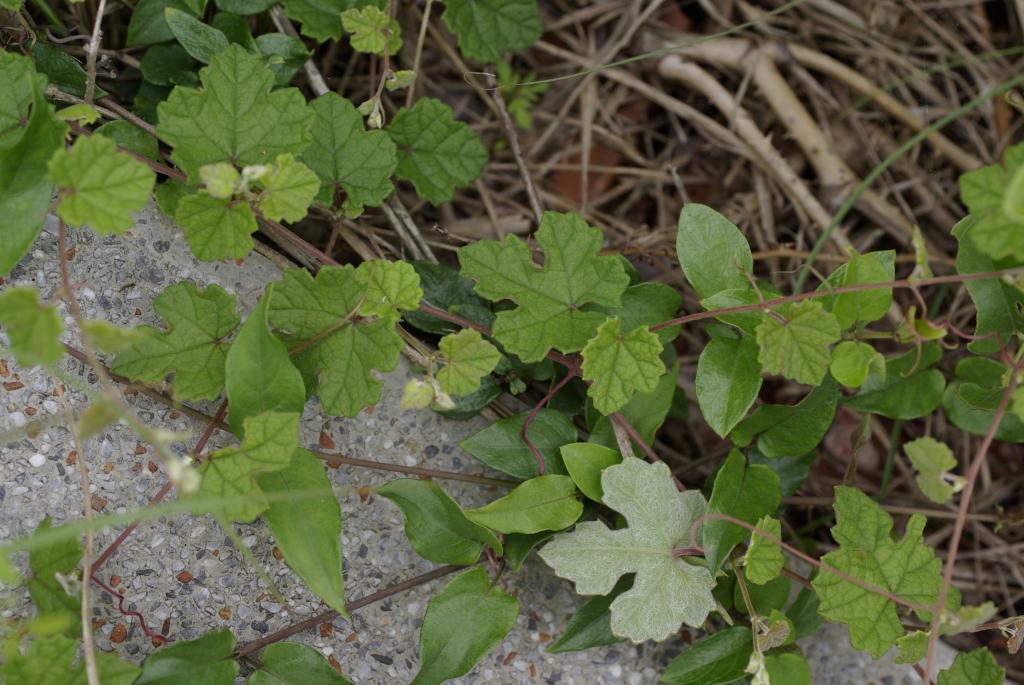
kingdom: Plantae
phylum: Tracheophyta
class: Magnoliopsida
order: Vitales
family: Vitaceae
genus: Vitis
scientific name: Vitis sinocinerea
